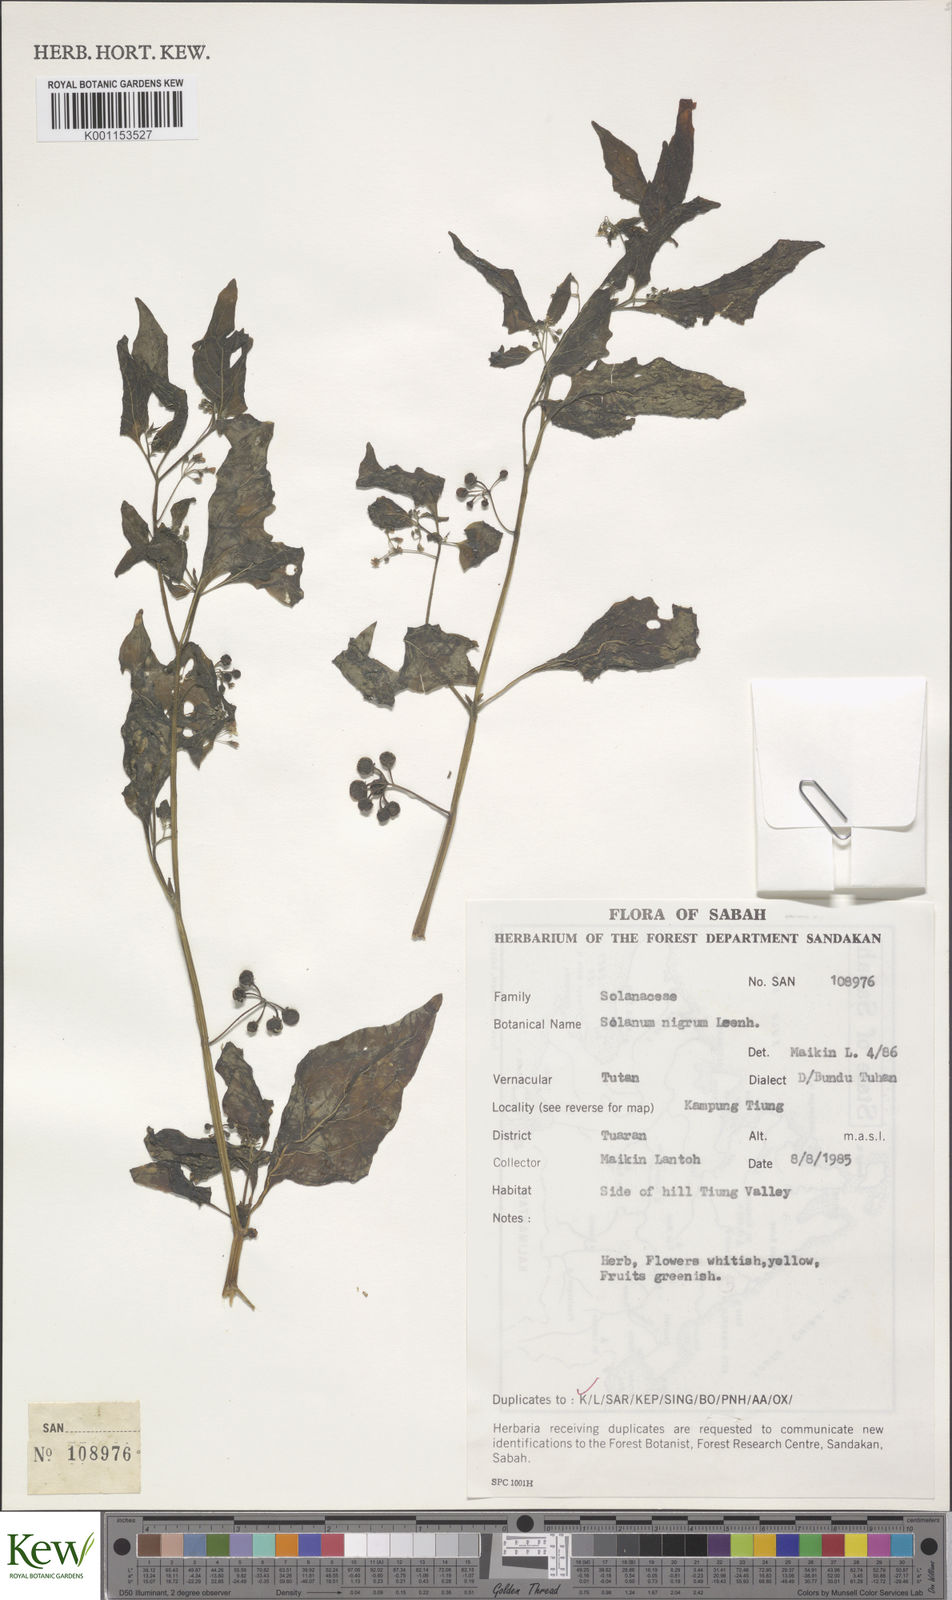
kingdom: Plantae
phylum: Tracheophyta
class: Magnoliopsida
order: Solanales
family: Solanaceae
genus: Solanum
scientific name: Solanum americanum
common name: American black nightshade
